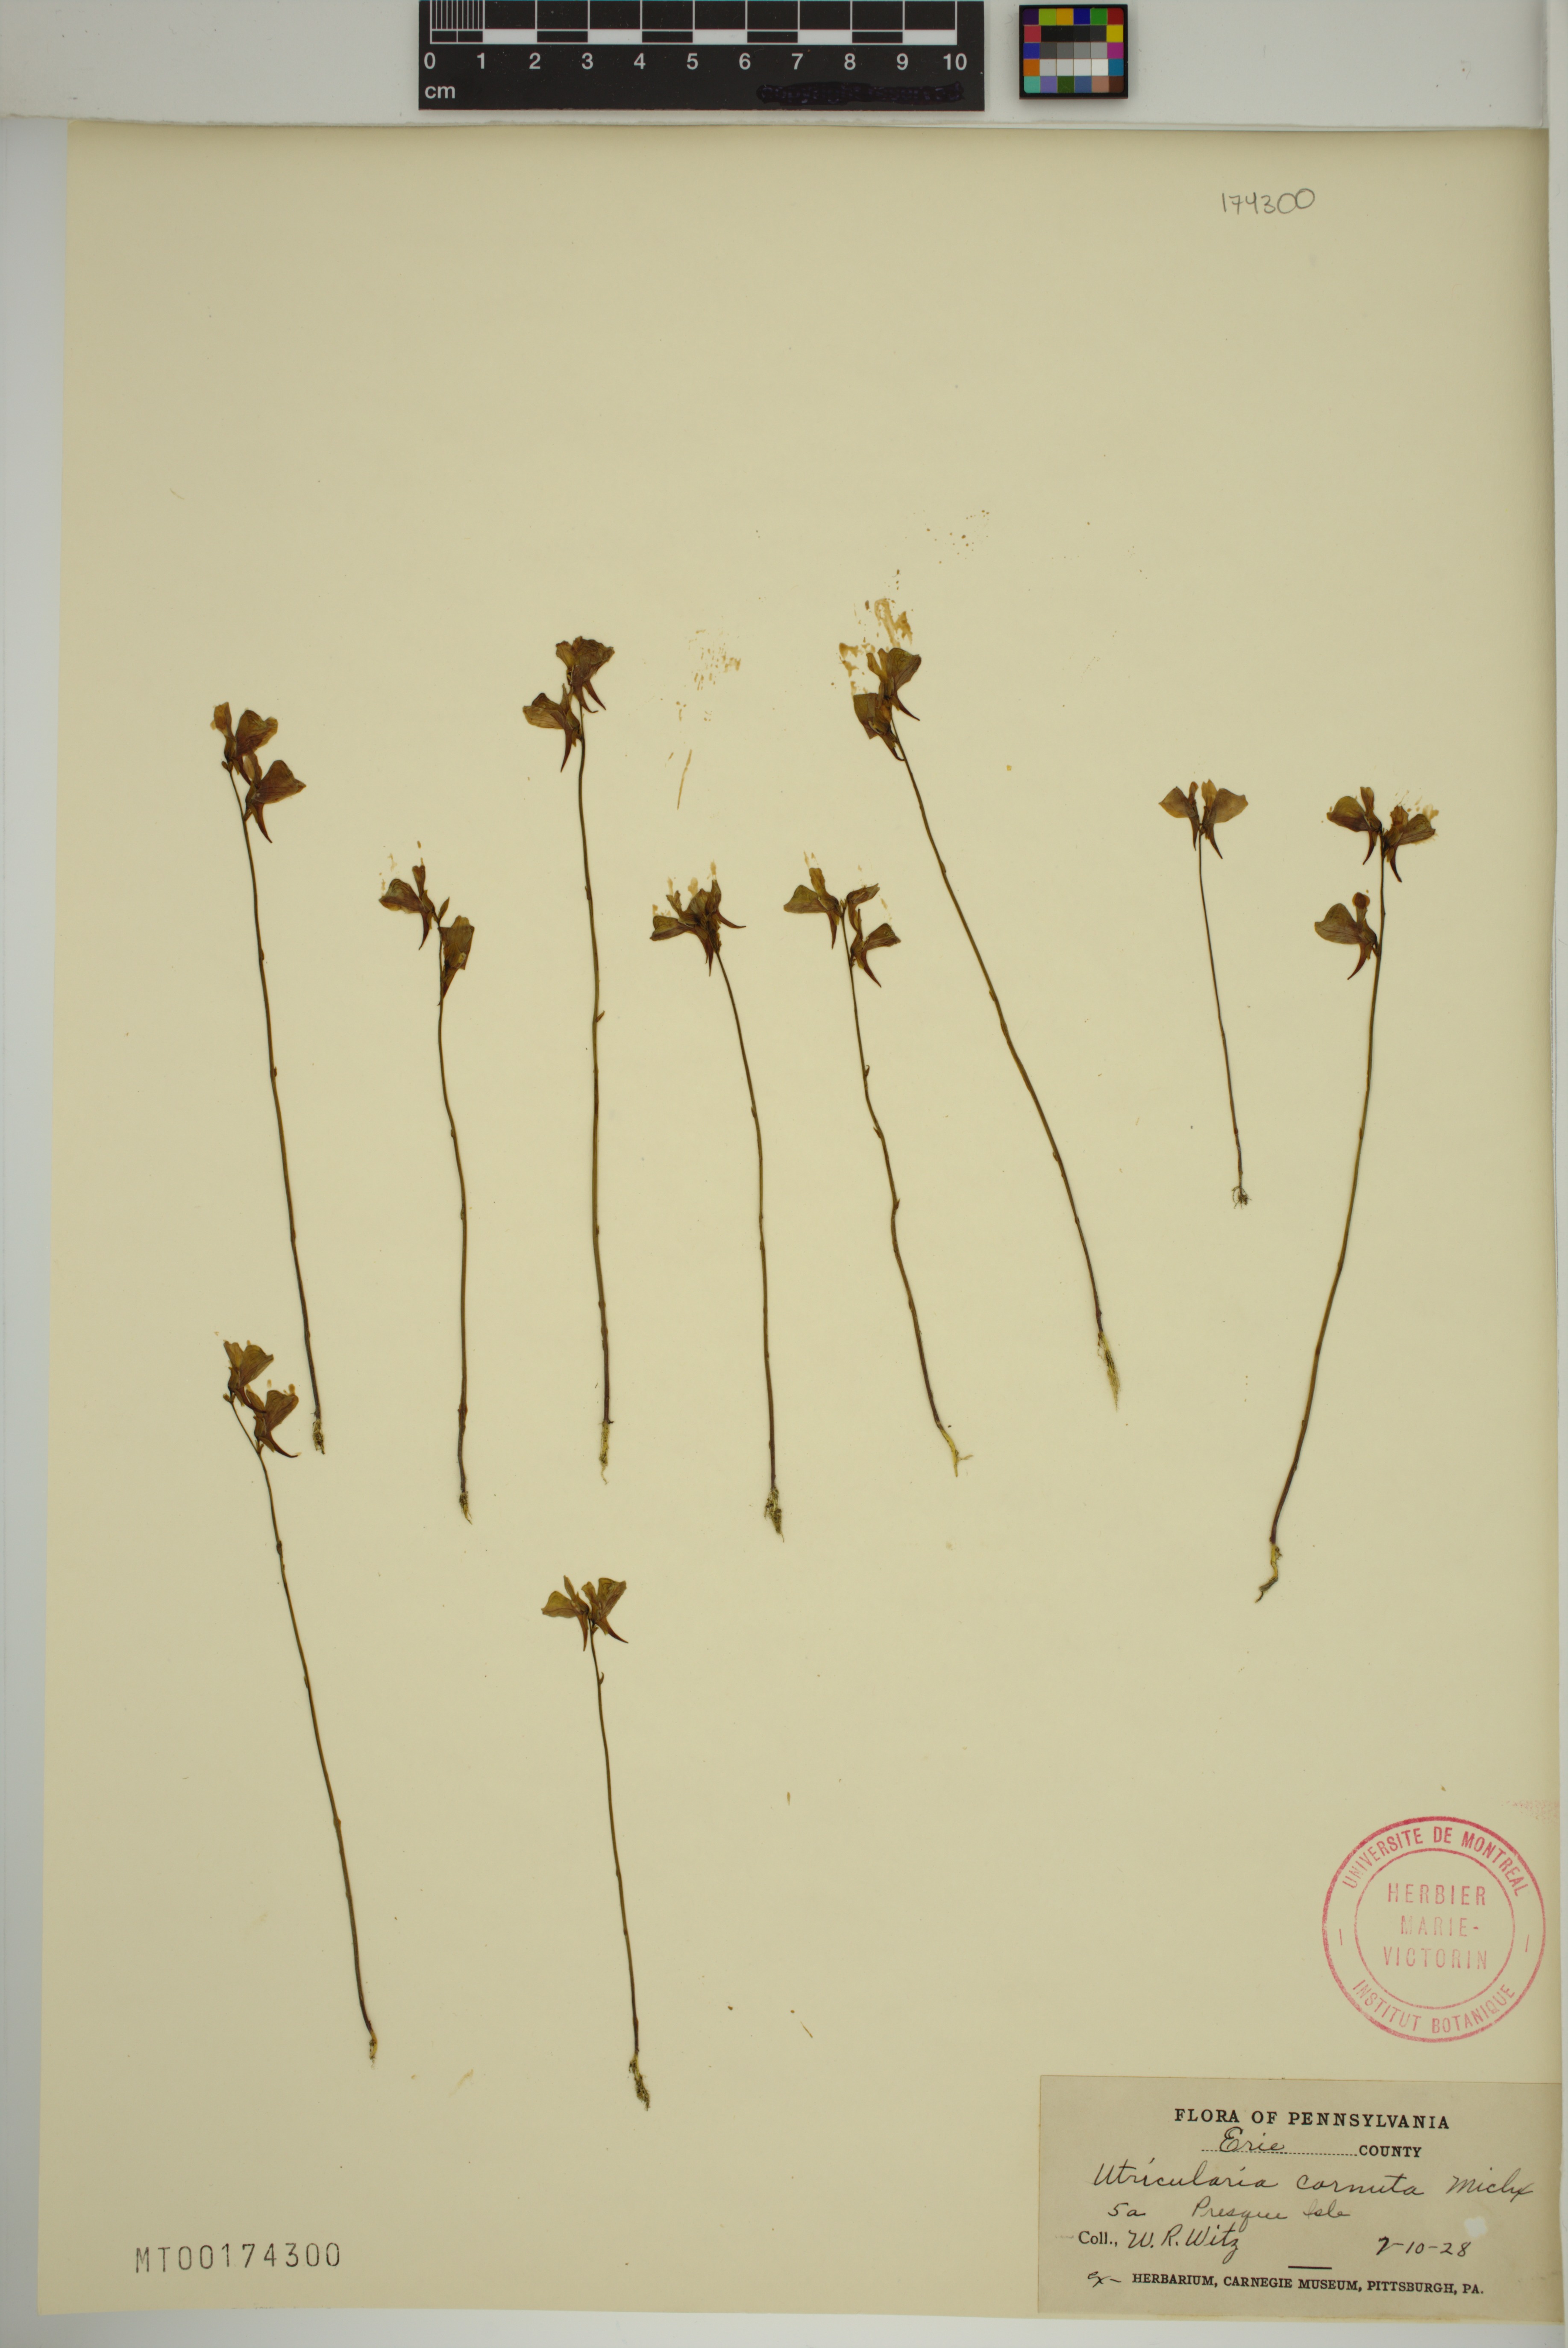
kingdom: Plantae
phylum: Tracheophyta
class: Magnoliopsida
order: Lamiales
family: Lentibulariaceae
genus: Utricularia
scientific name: Utricularia cornuta
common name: Horned bladderwort
